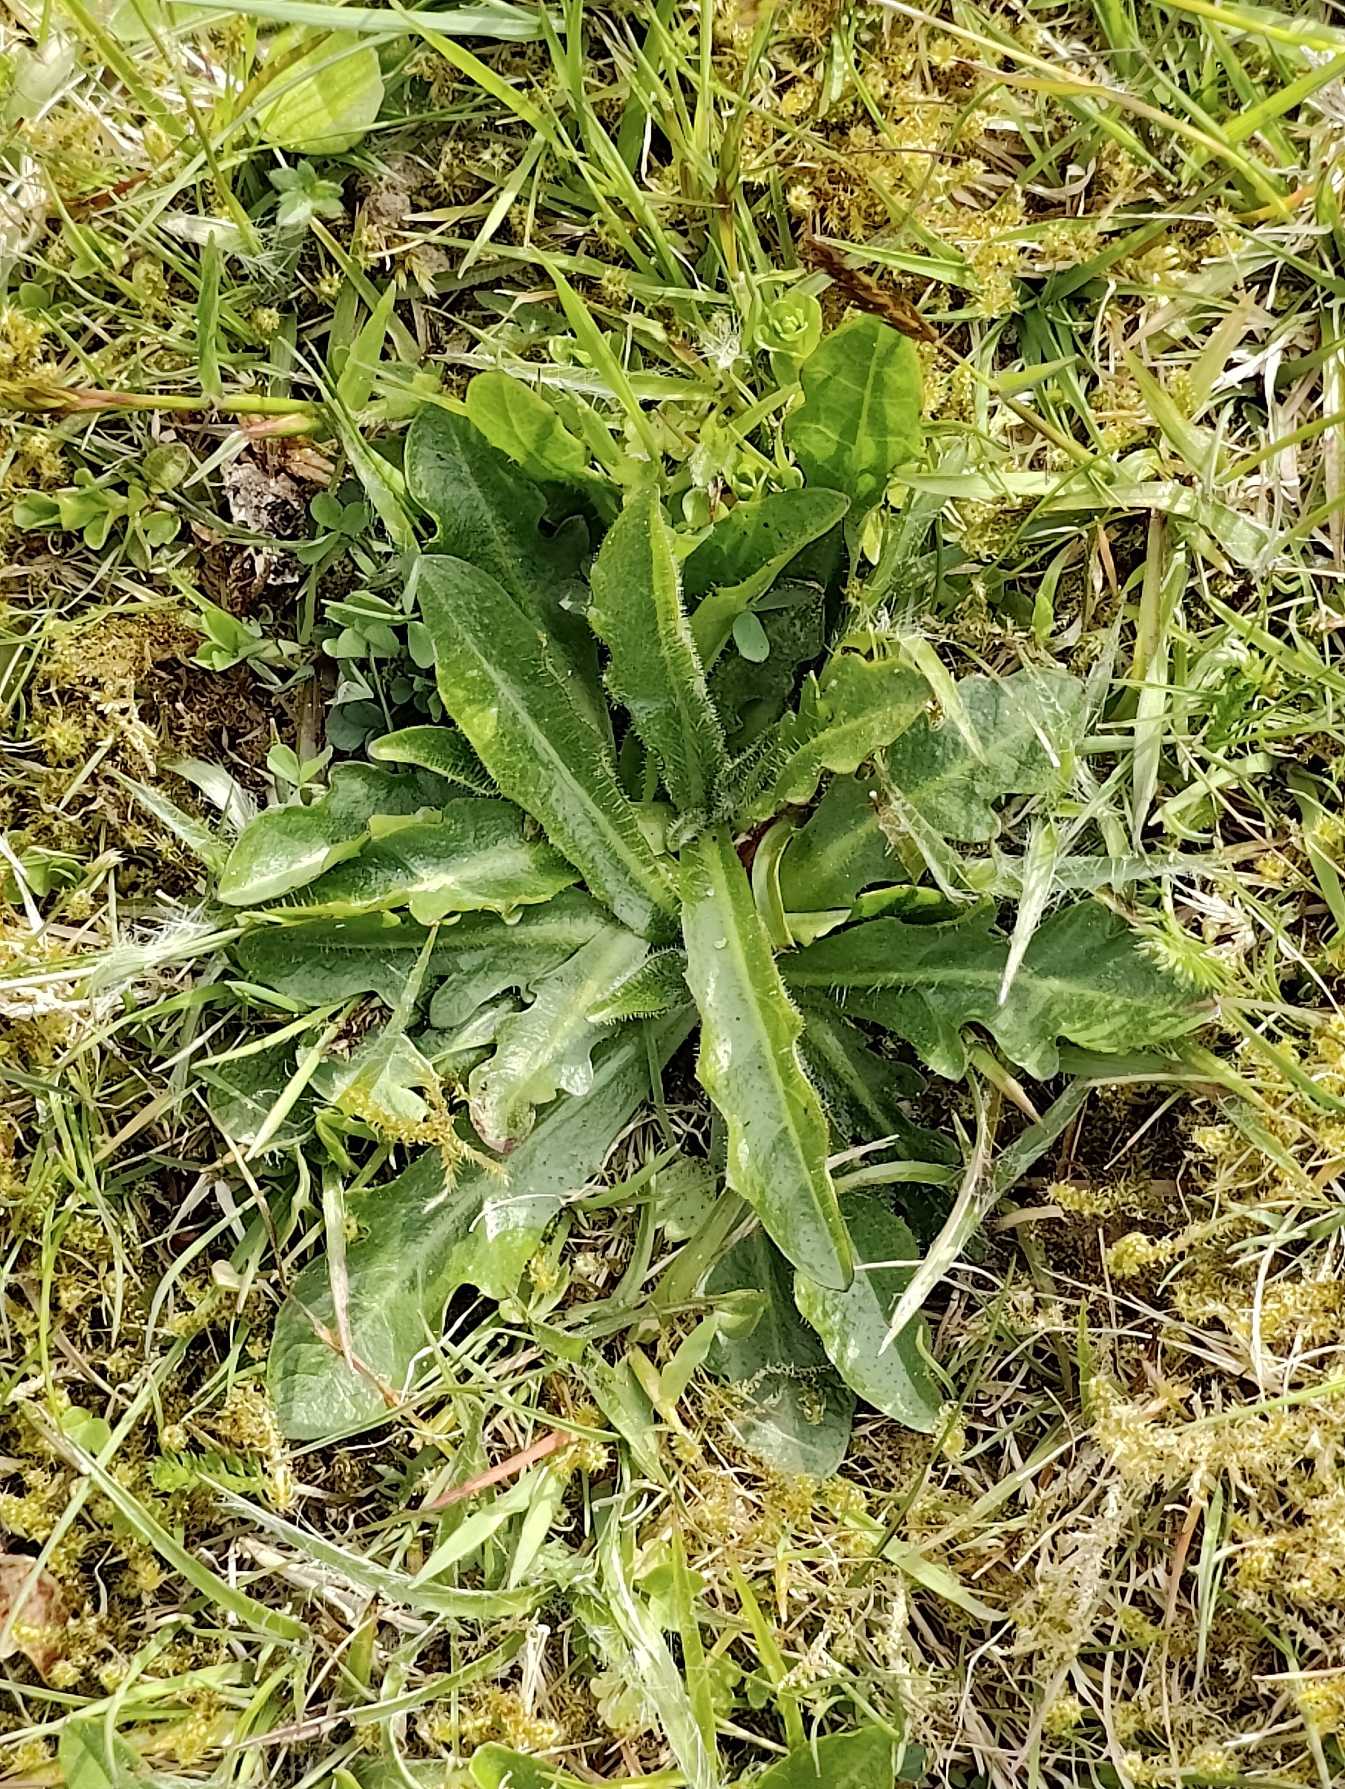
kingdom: Plantae
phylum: Tracheophyta
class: Magnoliopsida
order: Asterales
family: Asteraceae
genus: Hypochaeris
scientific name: Hypochaeris radicata
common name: Almindelig kongepen
